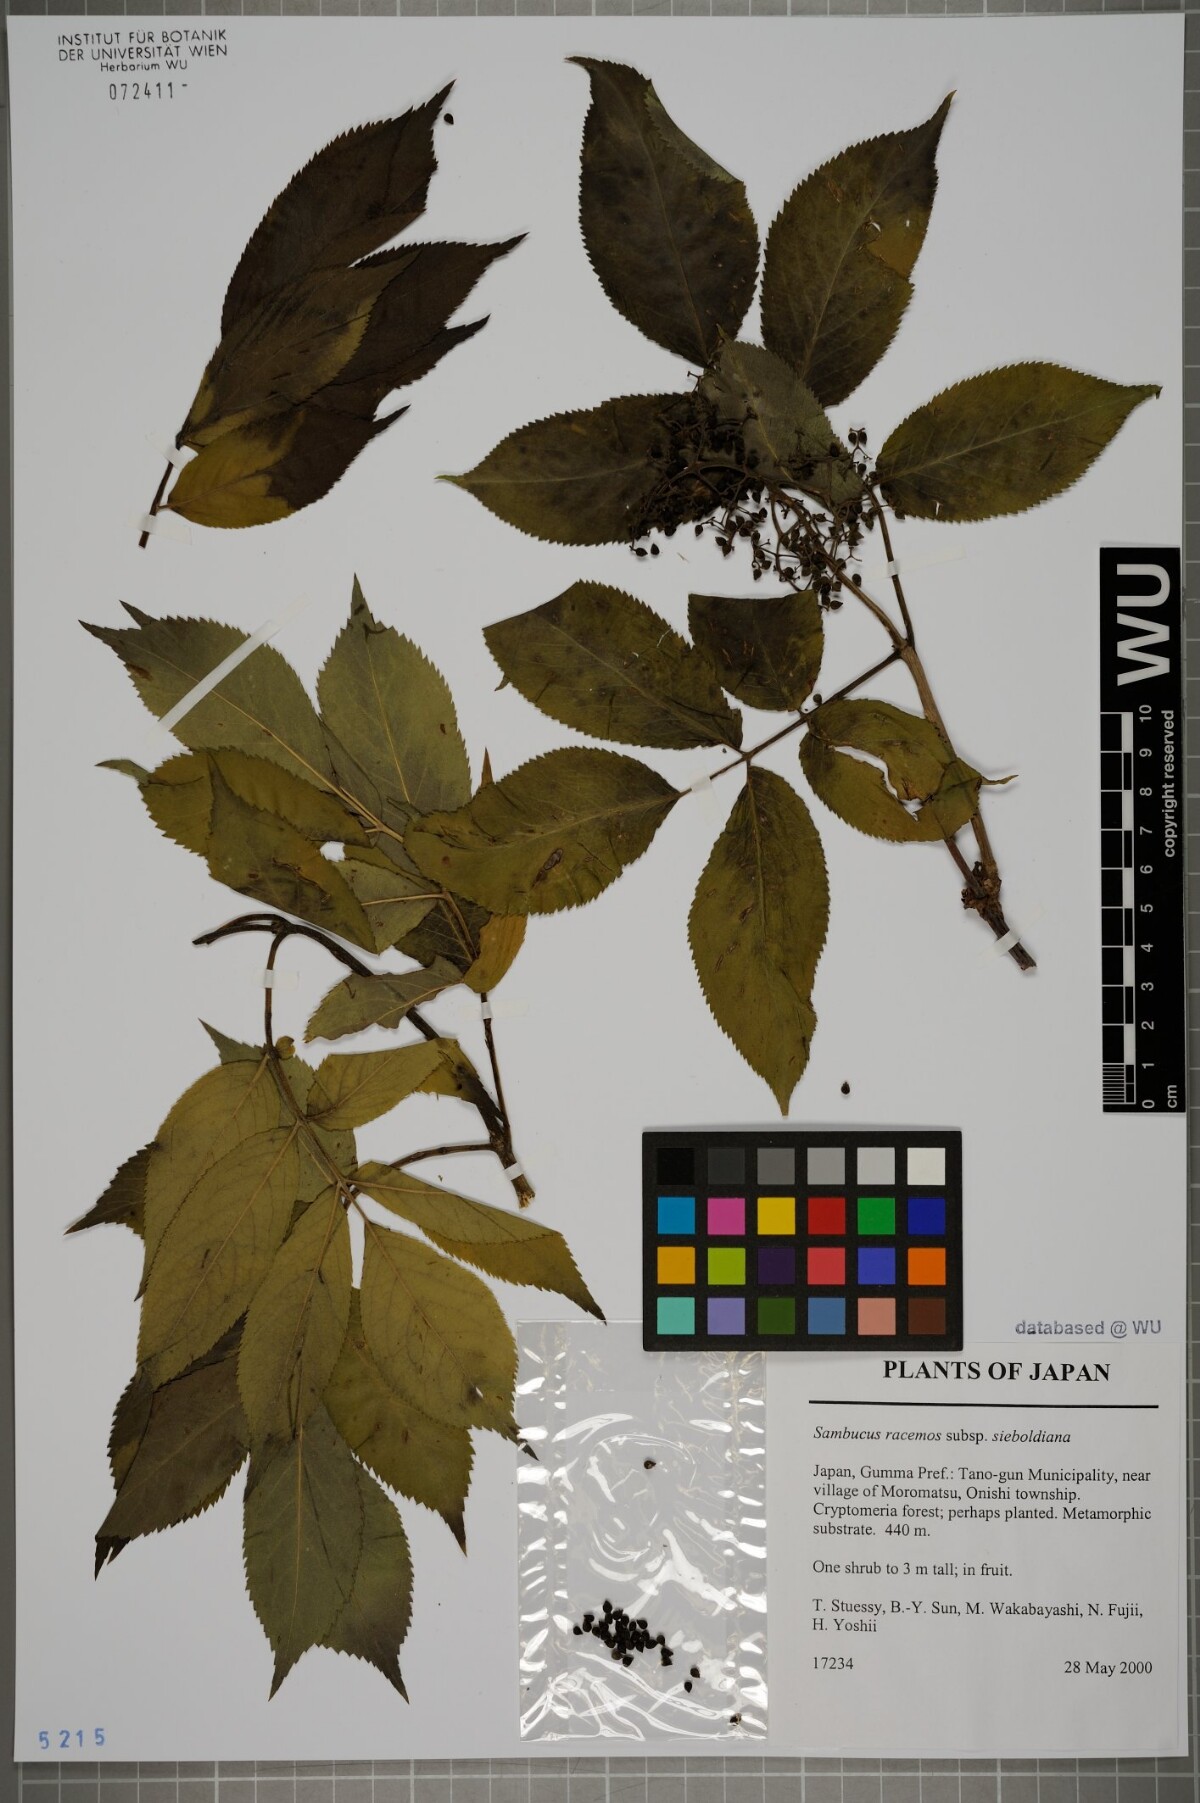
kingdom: Plantae
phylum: Tracheophyta
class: Magnoliopsida
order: Dipsacales
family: Viburnaceae
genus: Sambucus
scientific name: Sambucus sieboldiana
